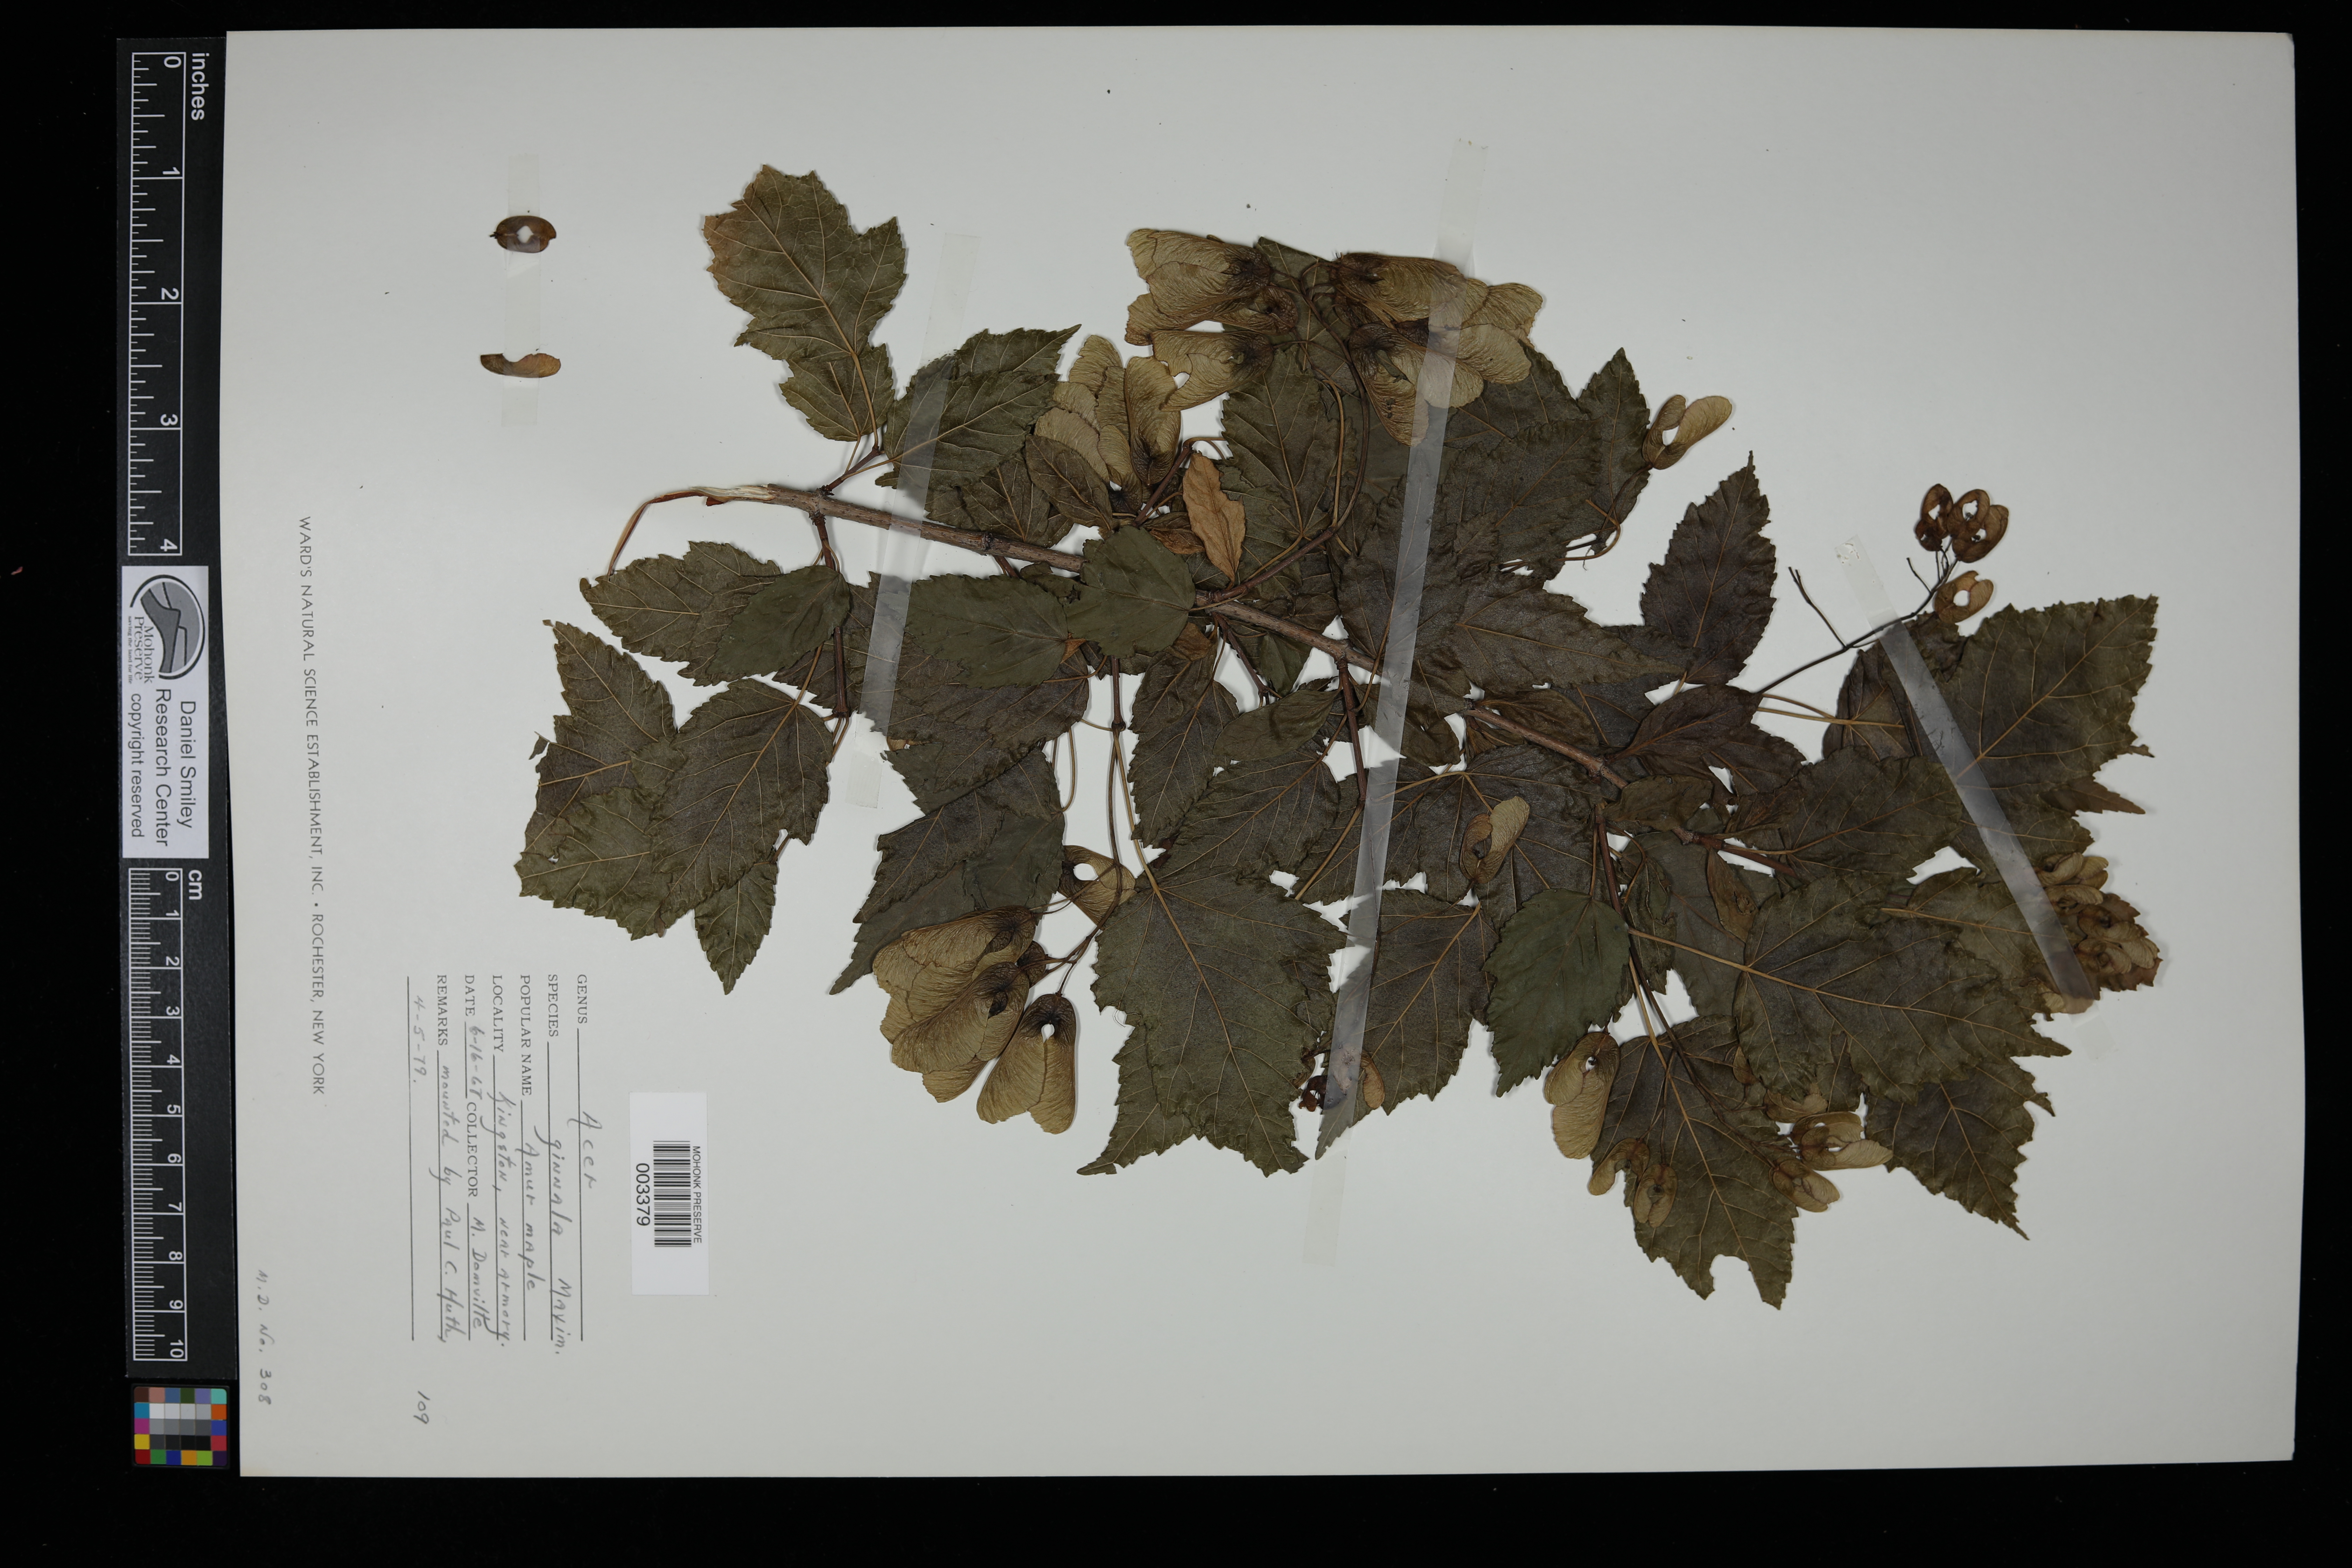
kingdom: Plantae
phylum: Tracheophyta
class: Magnoliopsida
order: Sapindales
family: Sapindaceae
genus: Acer
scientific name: Acer tataricum
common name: Tartar maple
